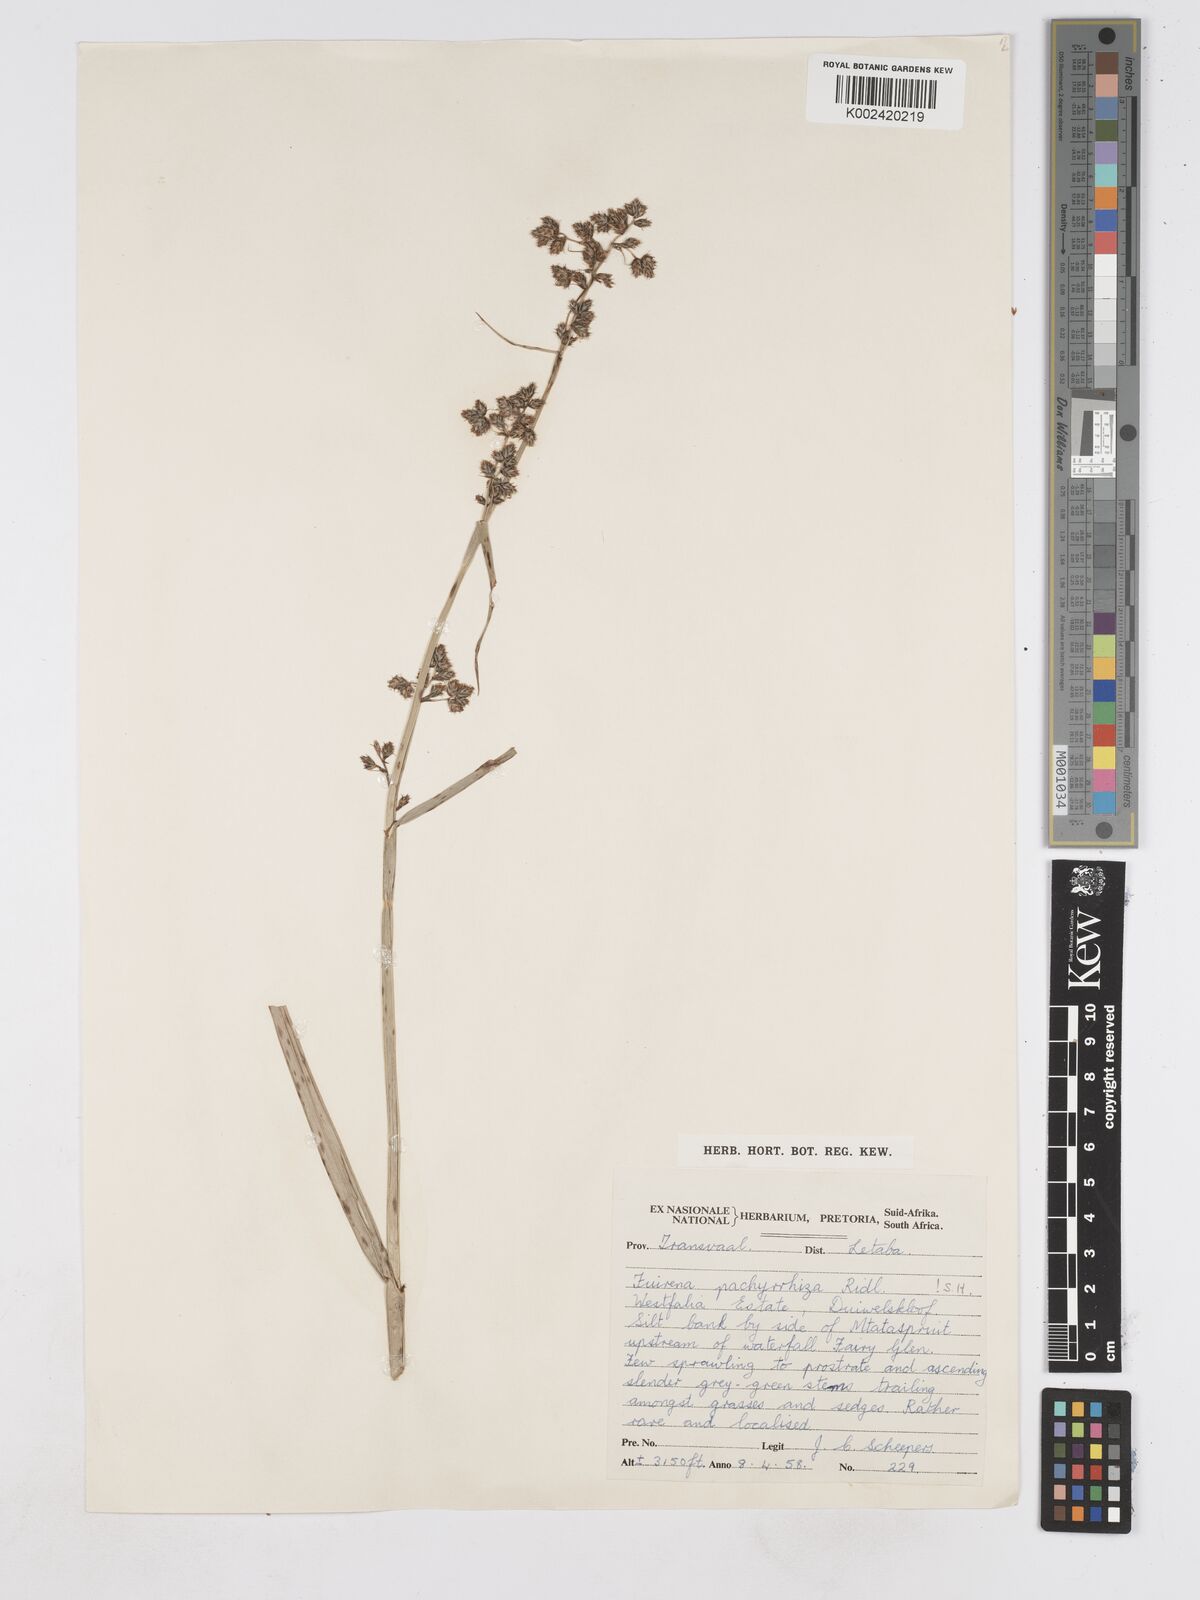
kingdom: Plantae
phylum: Tracheophyta
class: Liliopsida
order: Poales
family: Cyperaceae
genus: Fuirena
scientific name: Fuirena pachyrrhiza
